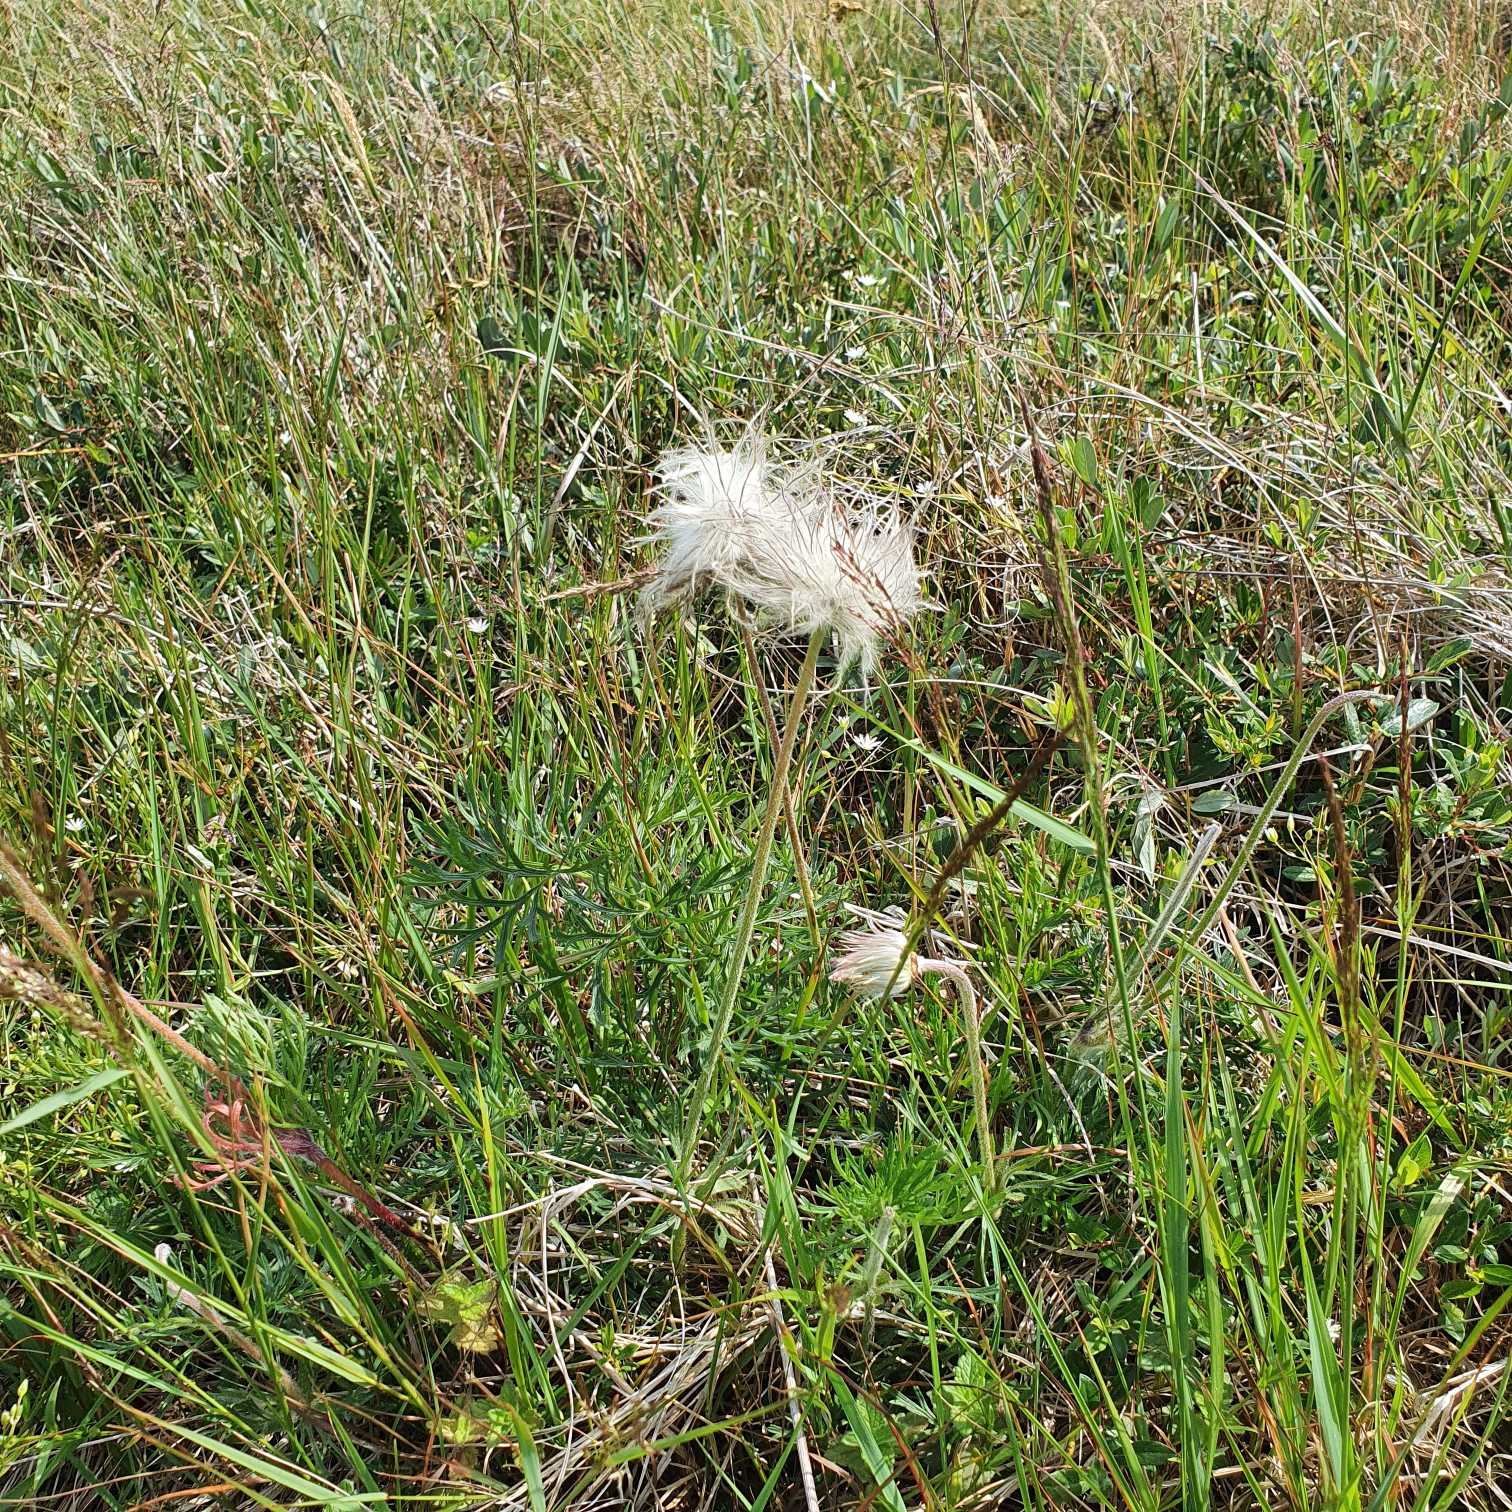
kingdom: Plantae
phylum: Tracheophyta
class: Magnoliopsida
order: Ranunculales
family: Ranunculaceae
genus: Pulsatilla
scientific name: Pulsatilla pratensis
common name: Nikkende kobjælde
